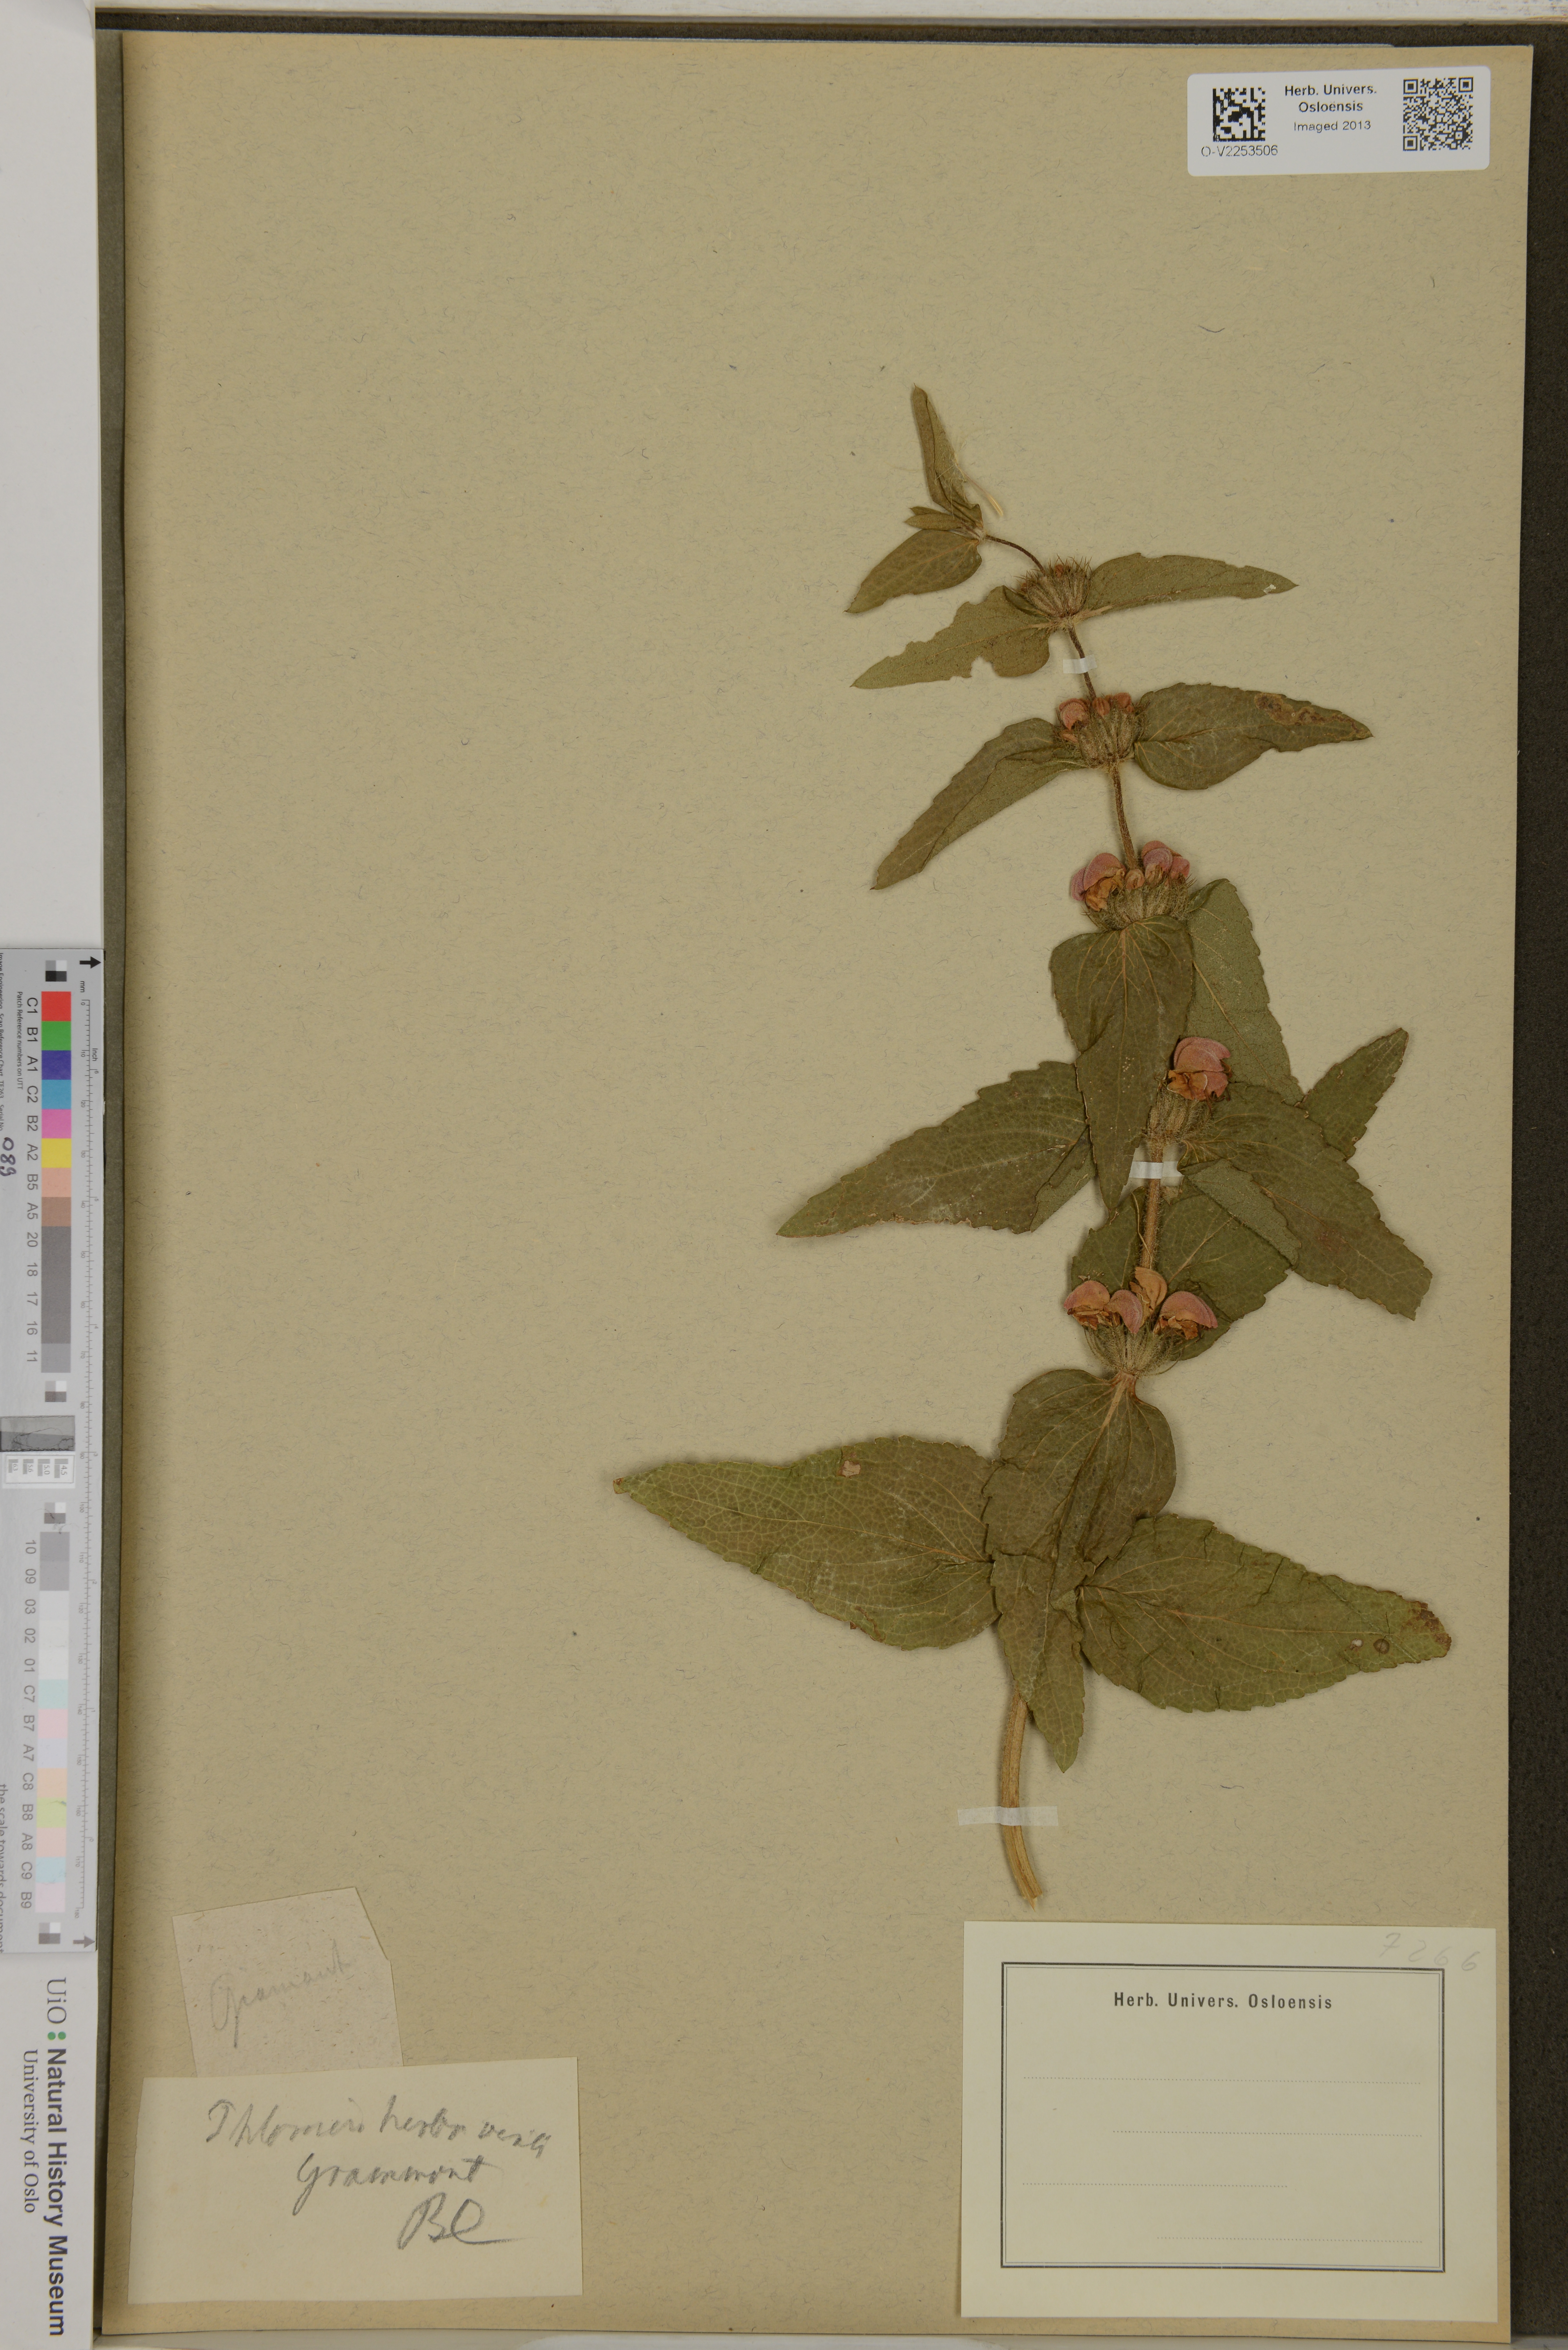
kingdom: Plantae
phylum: Tracheophyta
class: Magnoliopsida
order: Lamiales
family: Lamiaceae
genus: Phlomis
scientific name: Phlomis herba-venti
